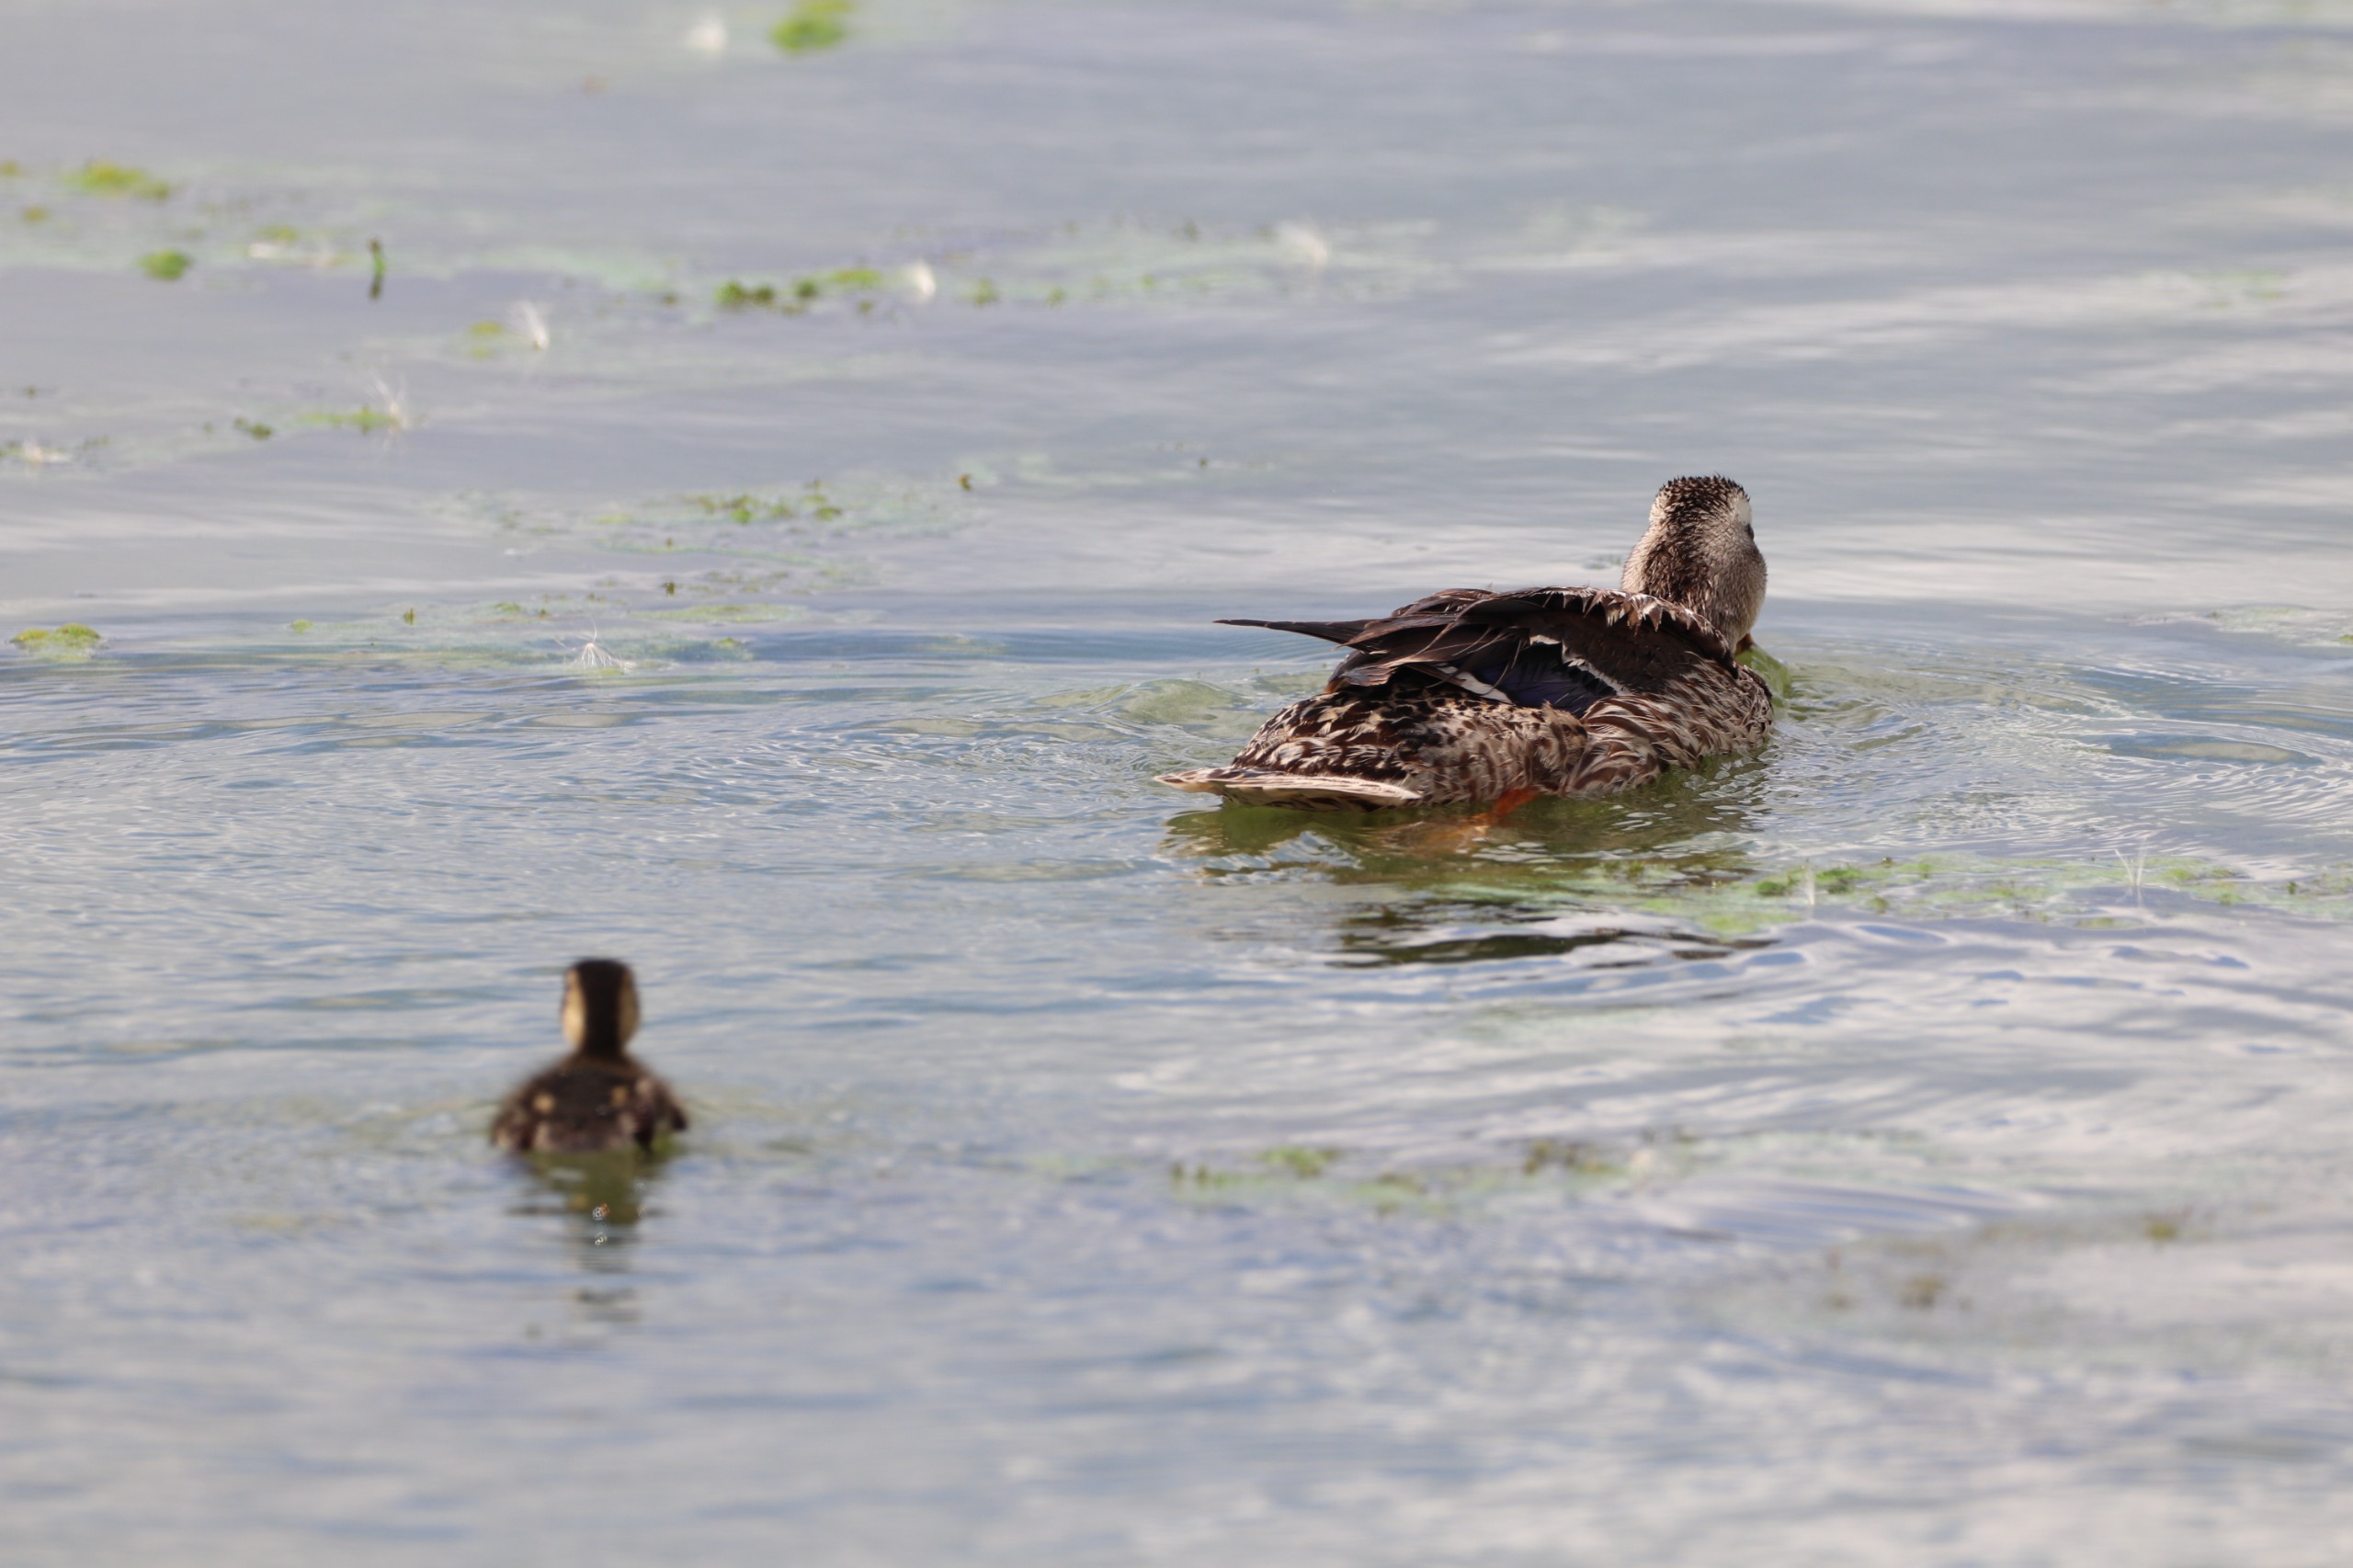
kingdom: Animalia
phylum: Chordata
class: Aves
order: Anseriformes
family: Anatidae
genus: Anas
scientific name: Anas platyrhynchos
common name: Gråand
